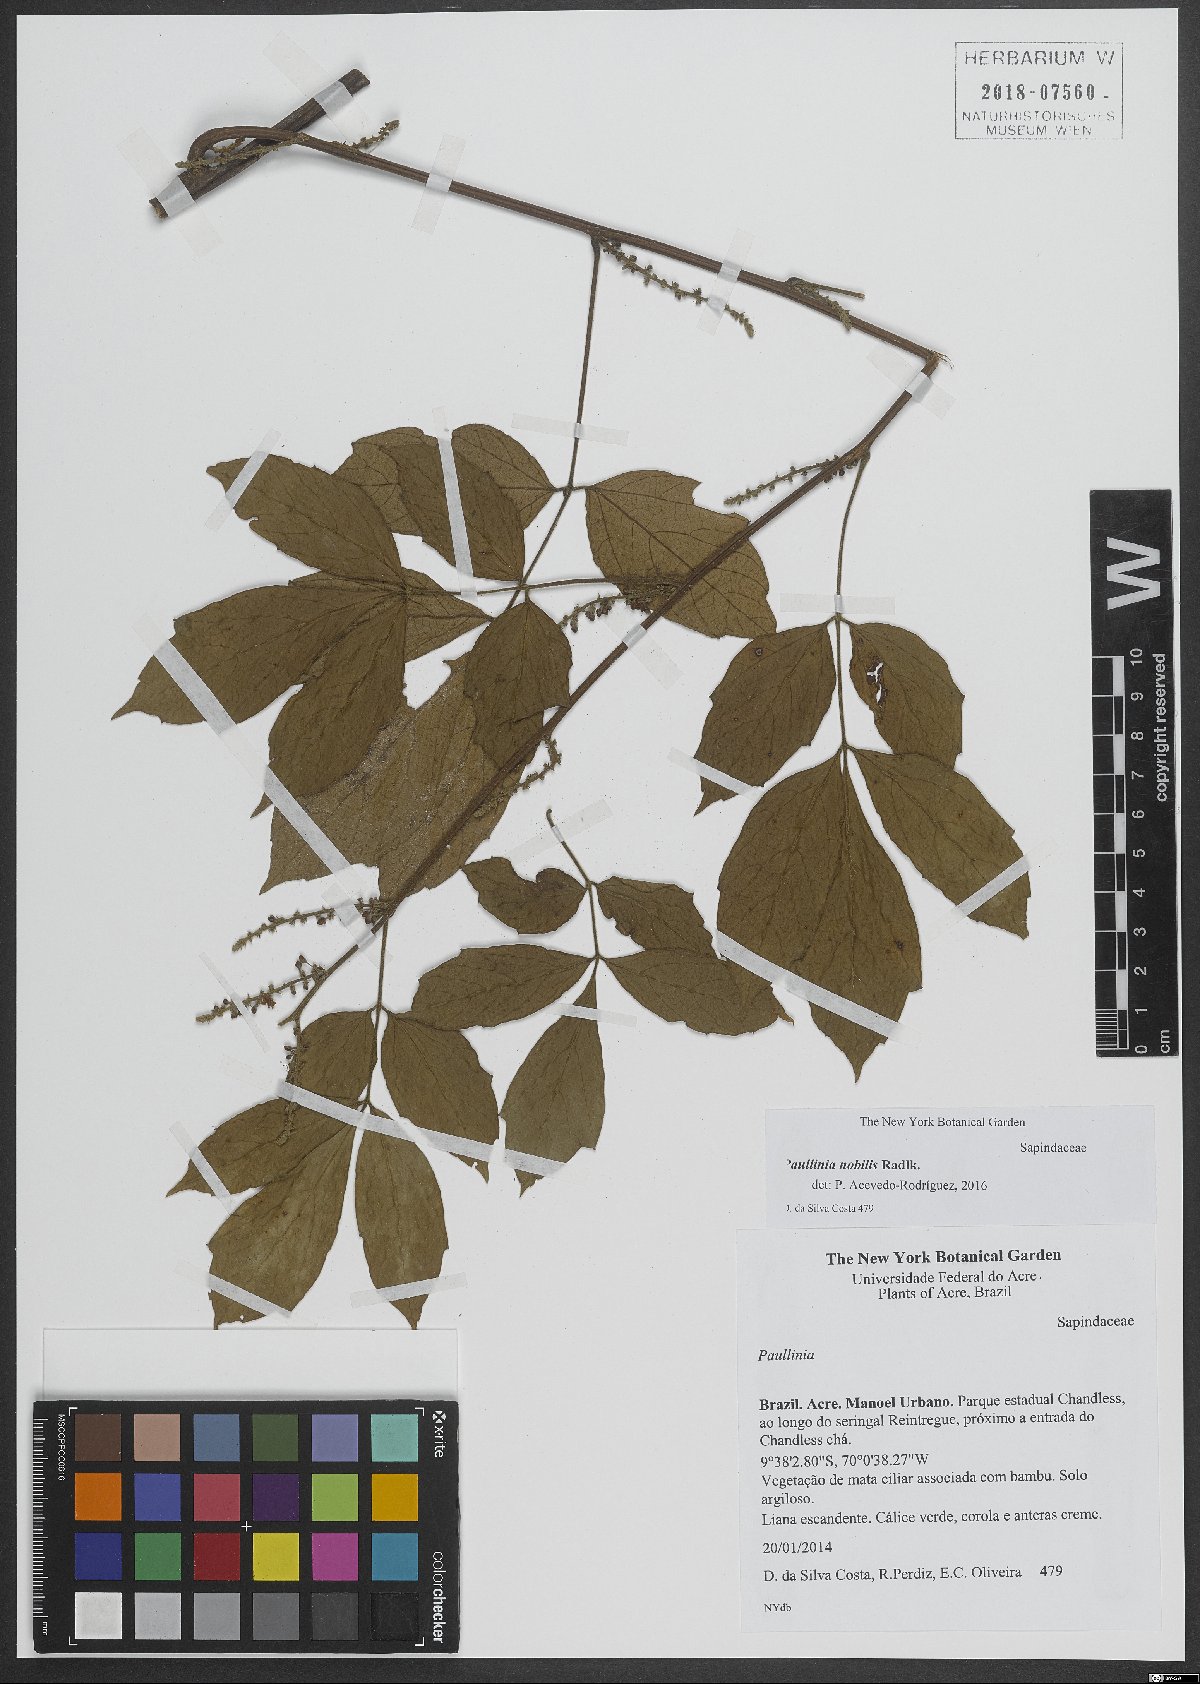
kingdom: Plantae
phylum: Tracheophyta
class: Magnoliopsida
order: Sapindales
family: Sapindaceae
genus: Paullinia
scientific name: Paullinia nobilis
